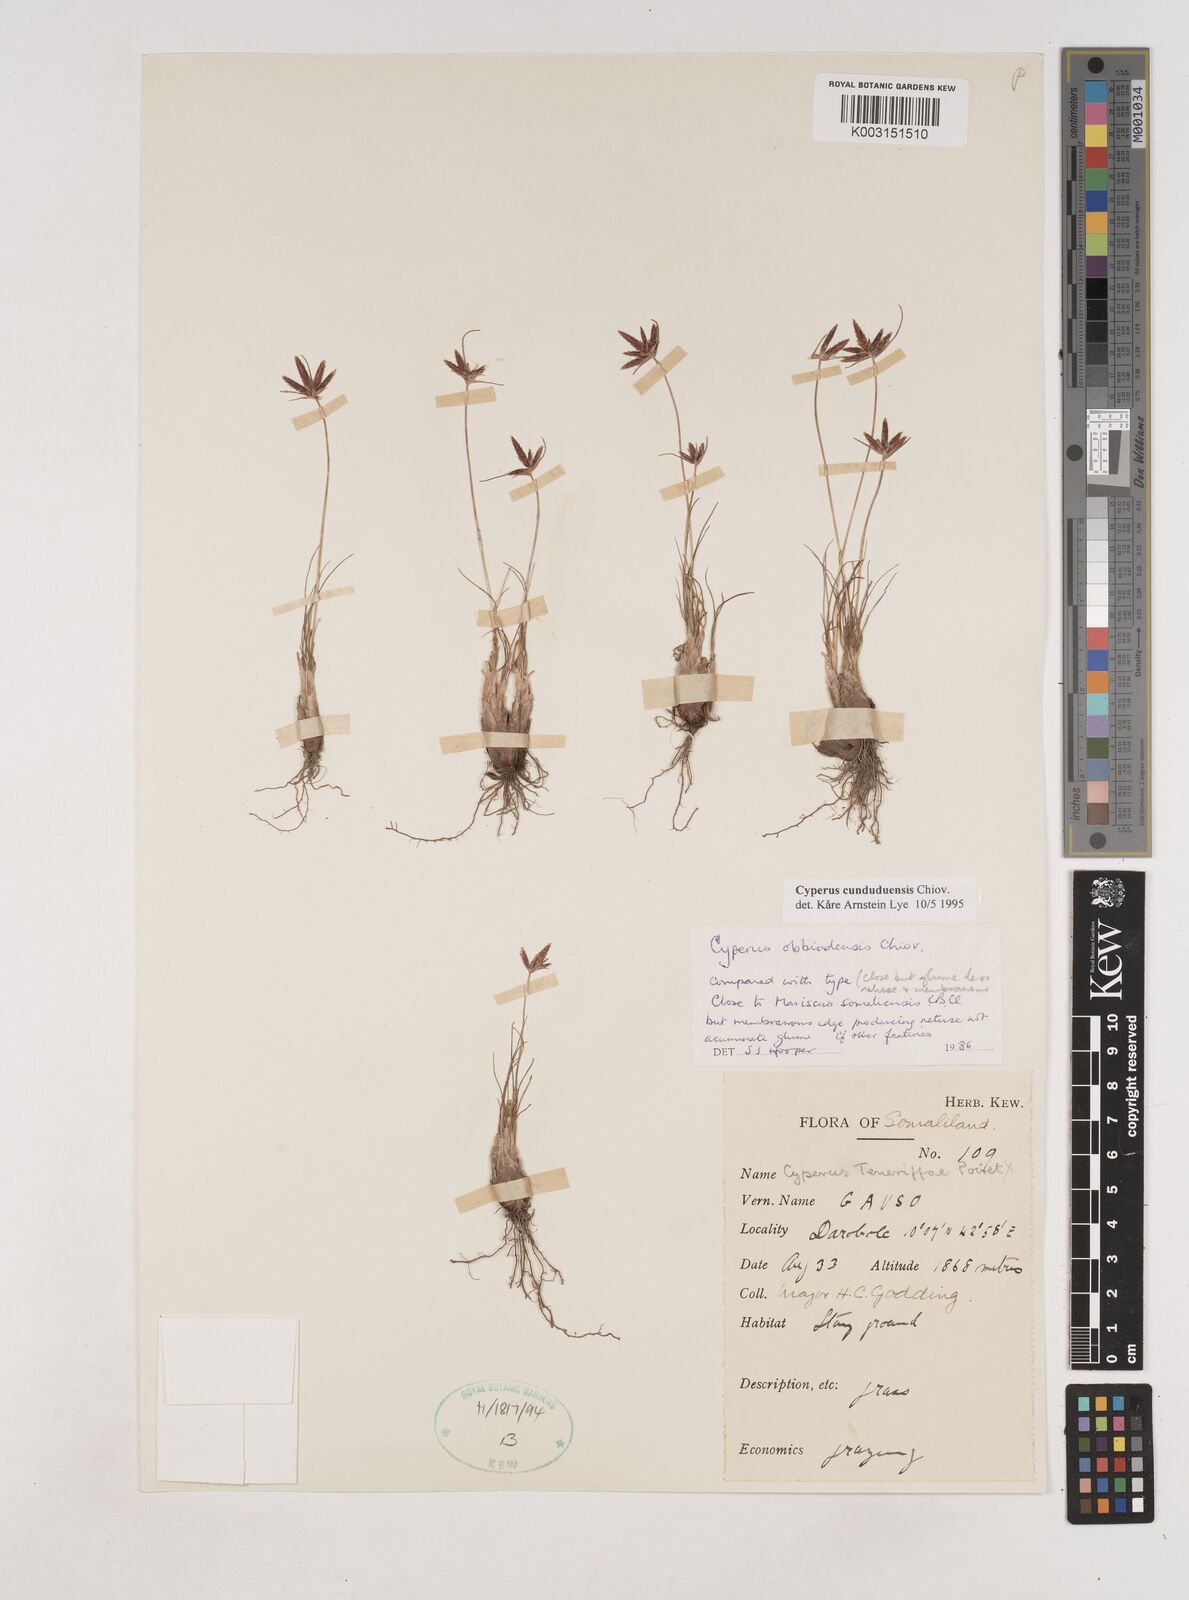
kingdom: Plantae
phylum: Tracheophyta
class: Liliopsida
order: Poales
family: Cyperaceae
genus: Cyperus
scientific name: Cyperus
